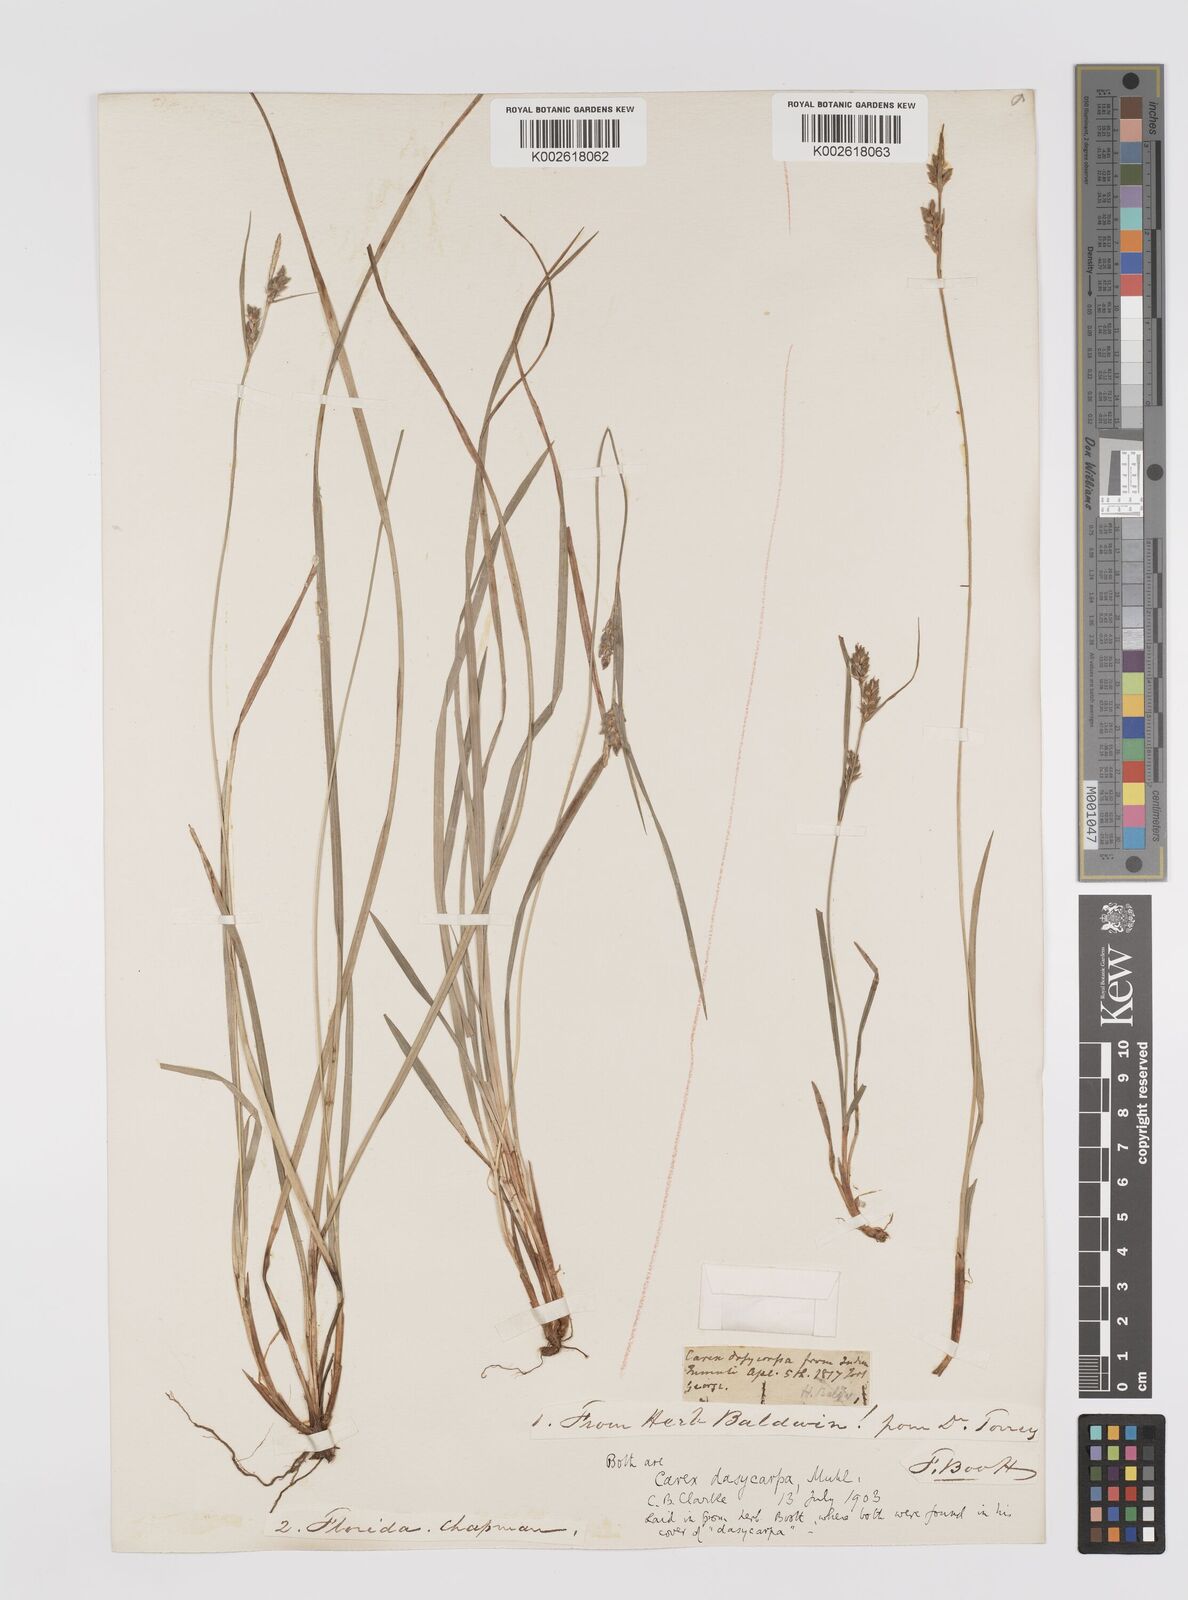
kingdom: Plantae
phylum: Tracheophyta
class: Liliopsida
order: Poales
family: Cyperaceae
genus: Carex
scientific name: Carex dasycarpa
